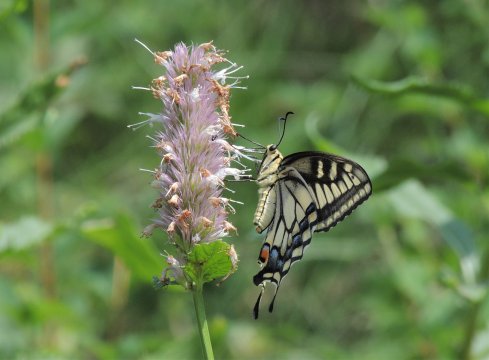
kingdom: Animalia
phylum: Arthropoda
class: Insecta
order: Lepidoptera
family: Papilionidae
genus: Papilio
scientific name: Papilio machaon
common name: Old World Swallowtail
